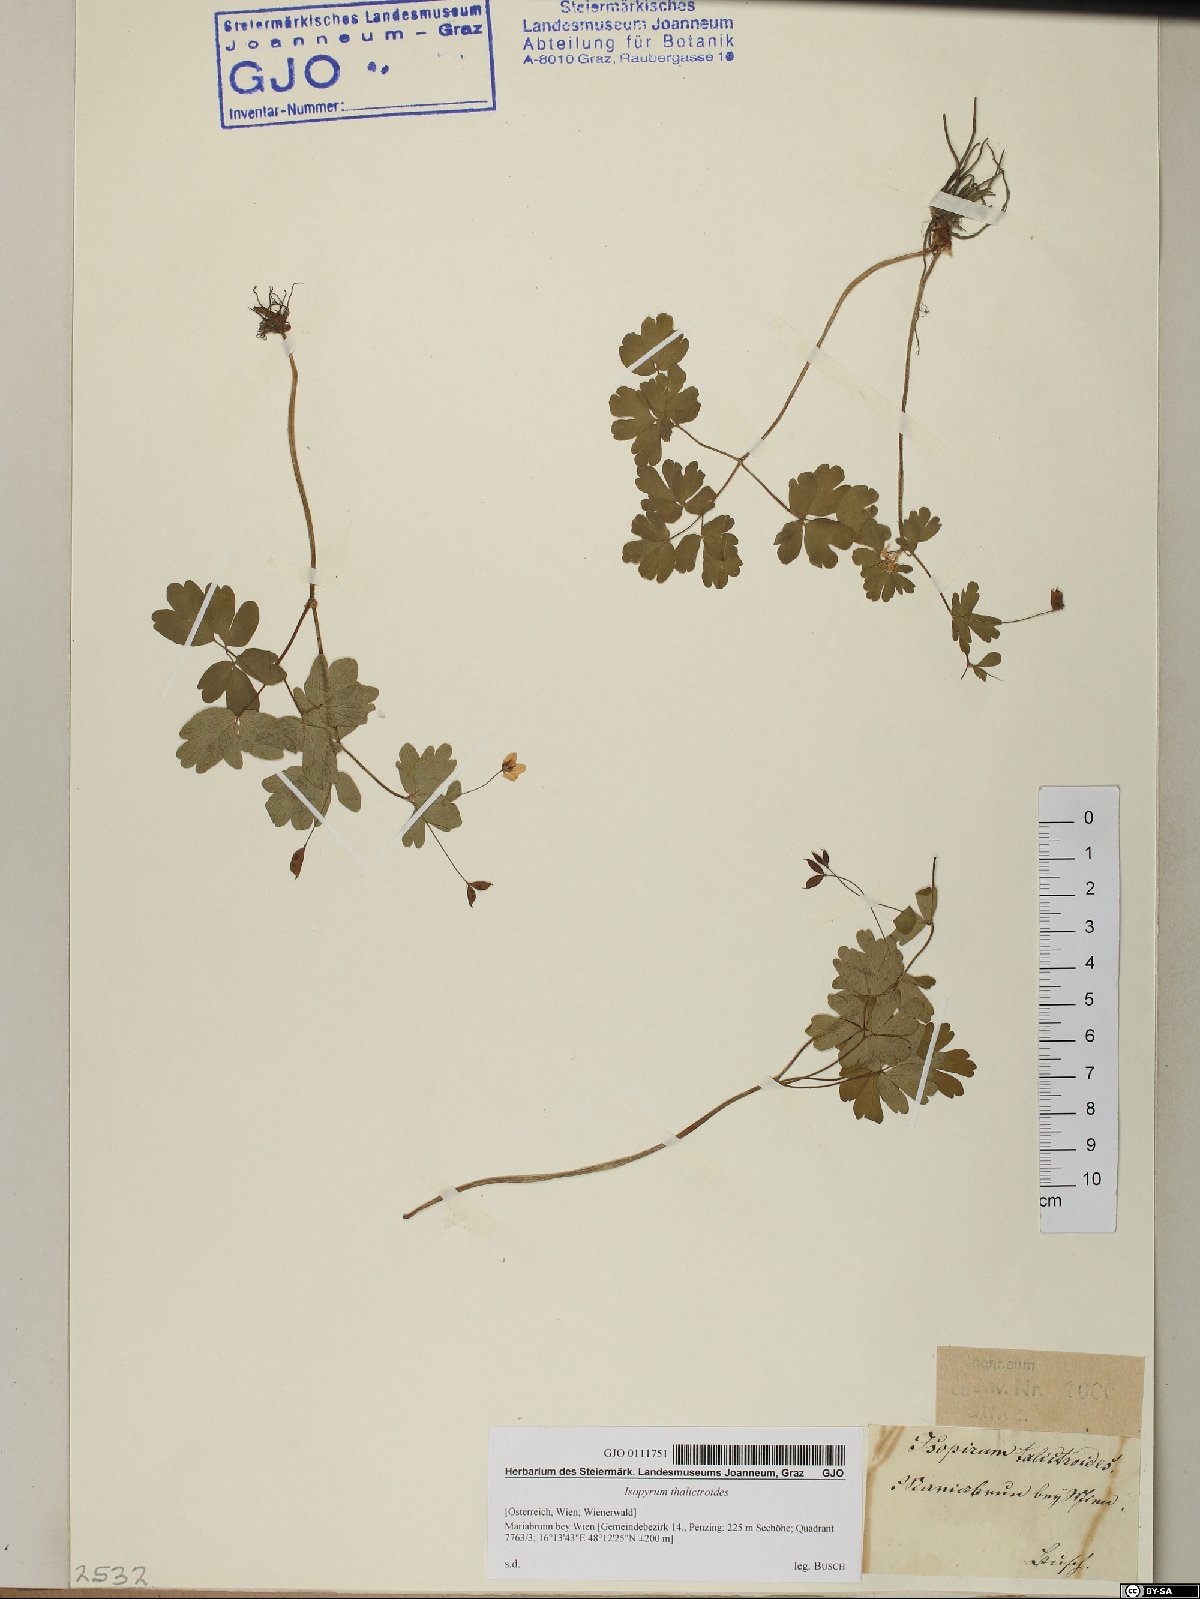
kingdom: Plantae
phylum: Tracheophyta
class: Magnoliopsida
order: Ranunculales
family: Ranunculaceae
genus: Isopyrum
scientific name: Isopyrum thalictroides
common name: Isopyrum
